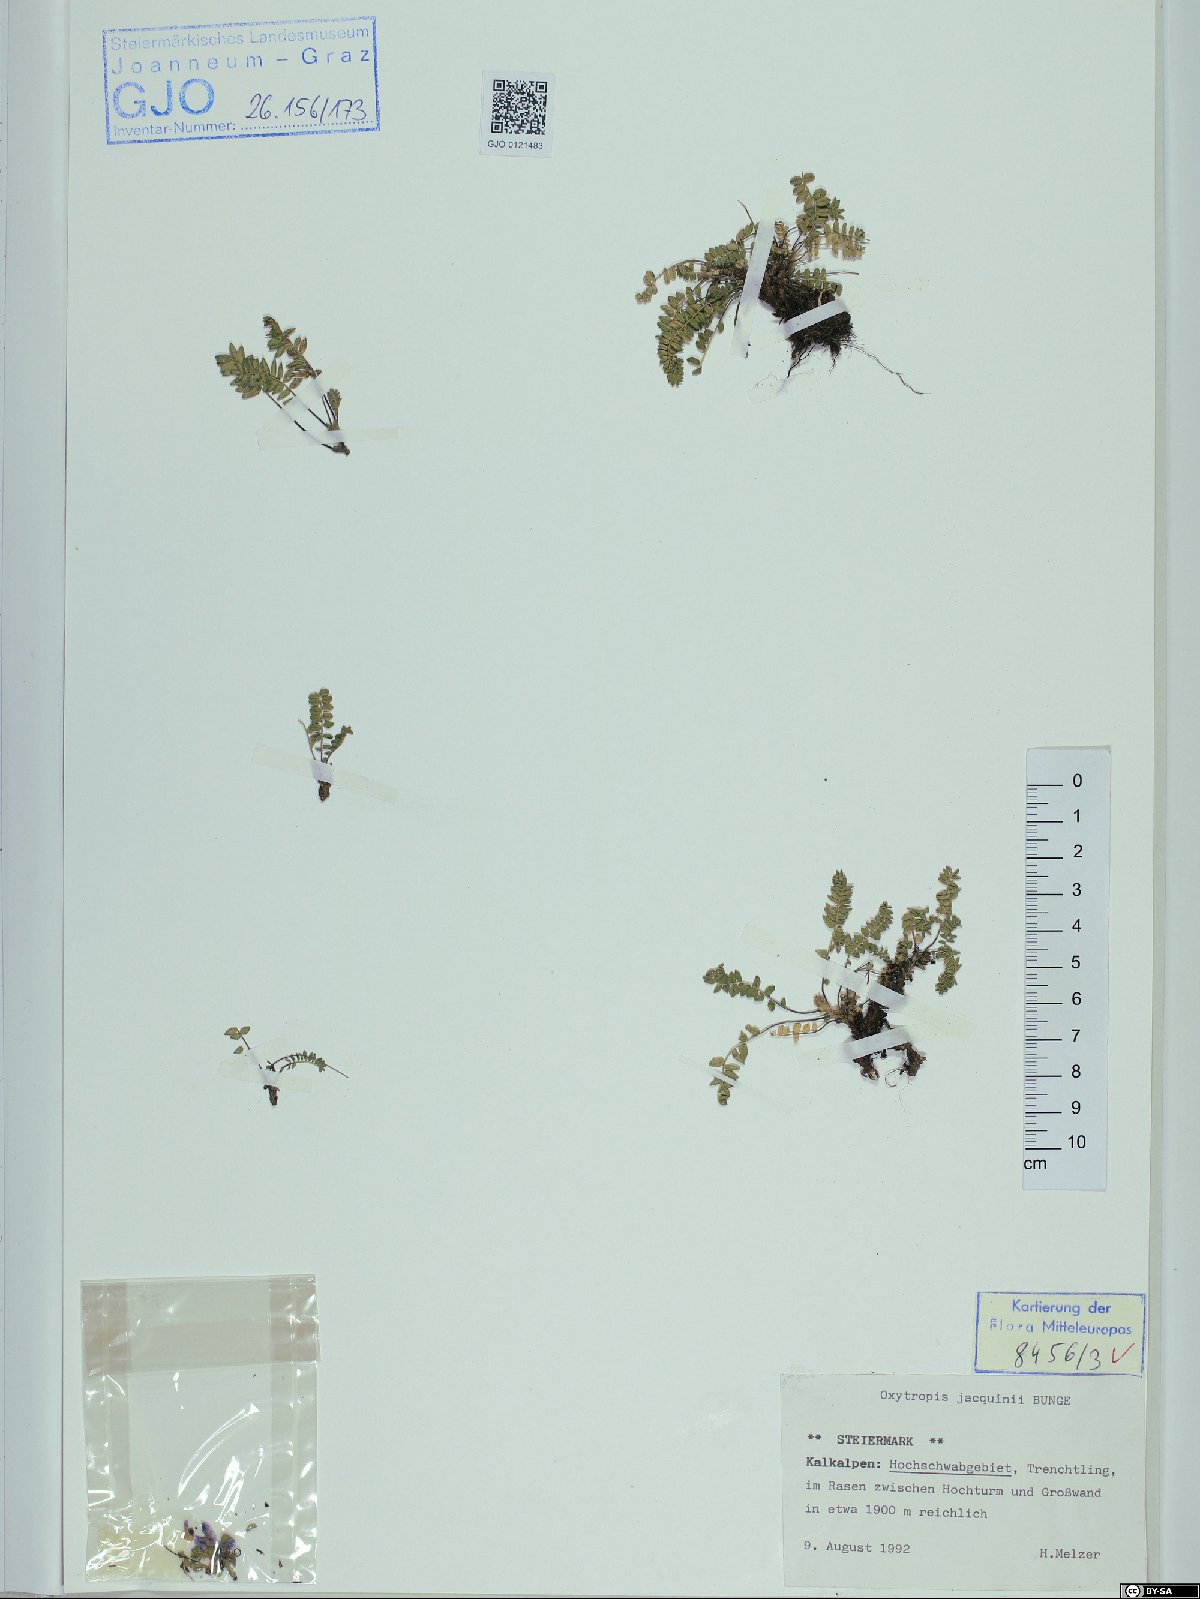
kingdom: Plantae
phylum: Tracheophyta
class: Magnoliopsida
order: Fabales
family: Fabaceae
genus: Oxytropis
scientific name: Oxytropis montana
